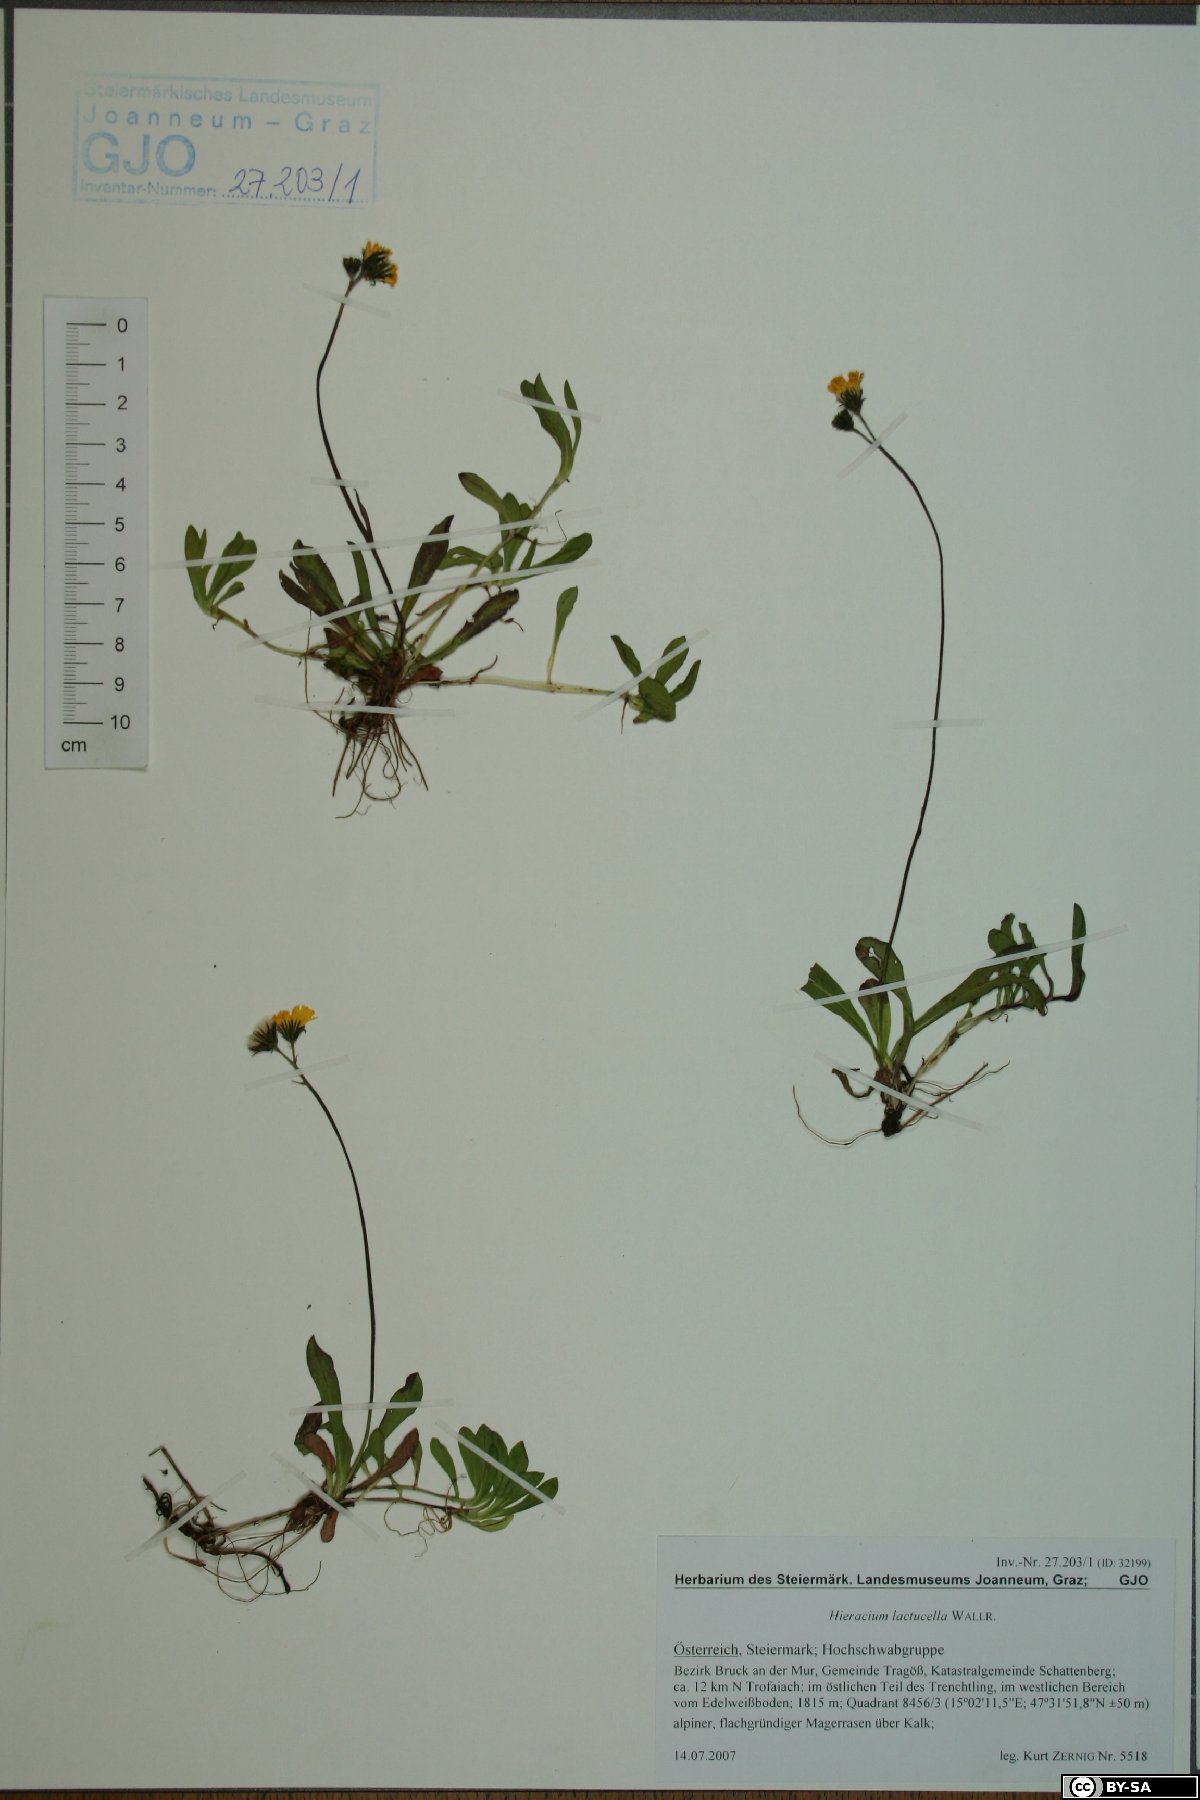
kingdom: Plantae
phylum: Tracheophyta
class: Magnoliopsida
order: Asterales
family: Asteraceae
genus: Pilosella
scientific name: Pilosella lactucella
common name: Glaucous fox-and-cubs
